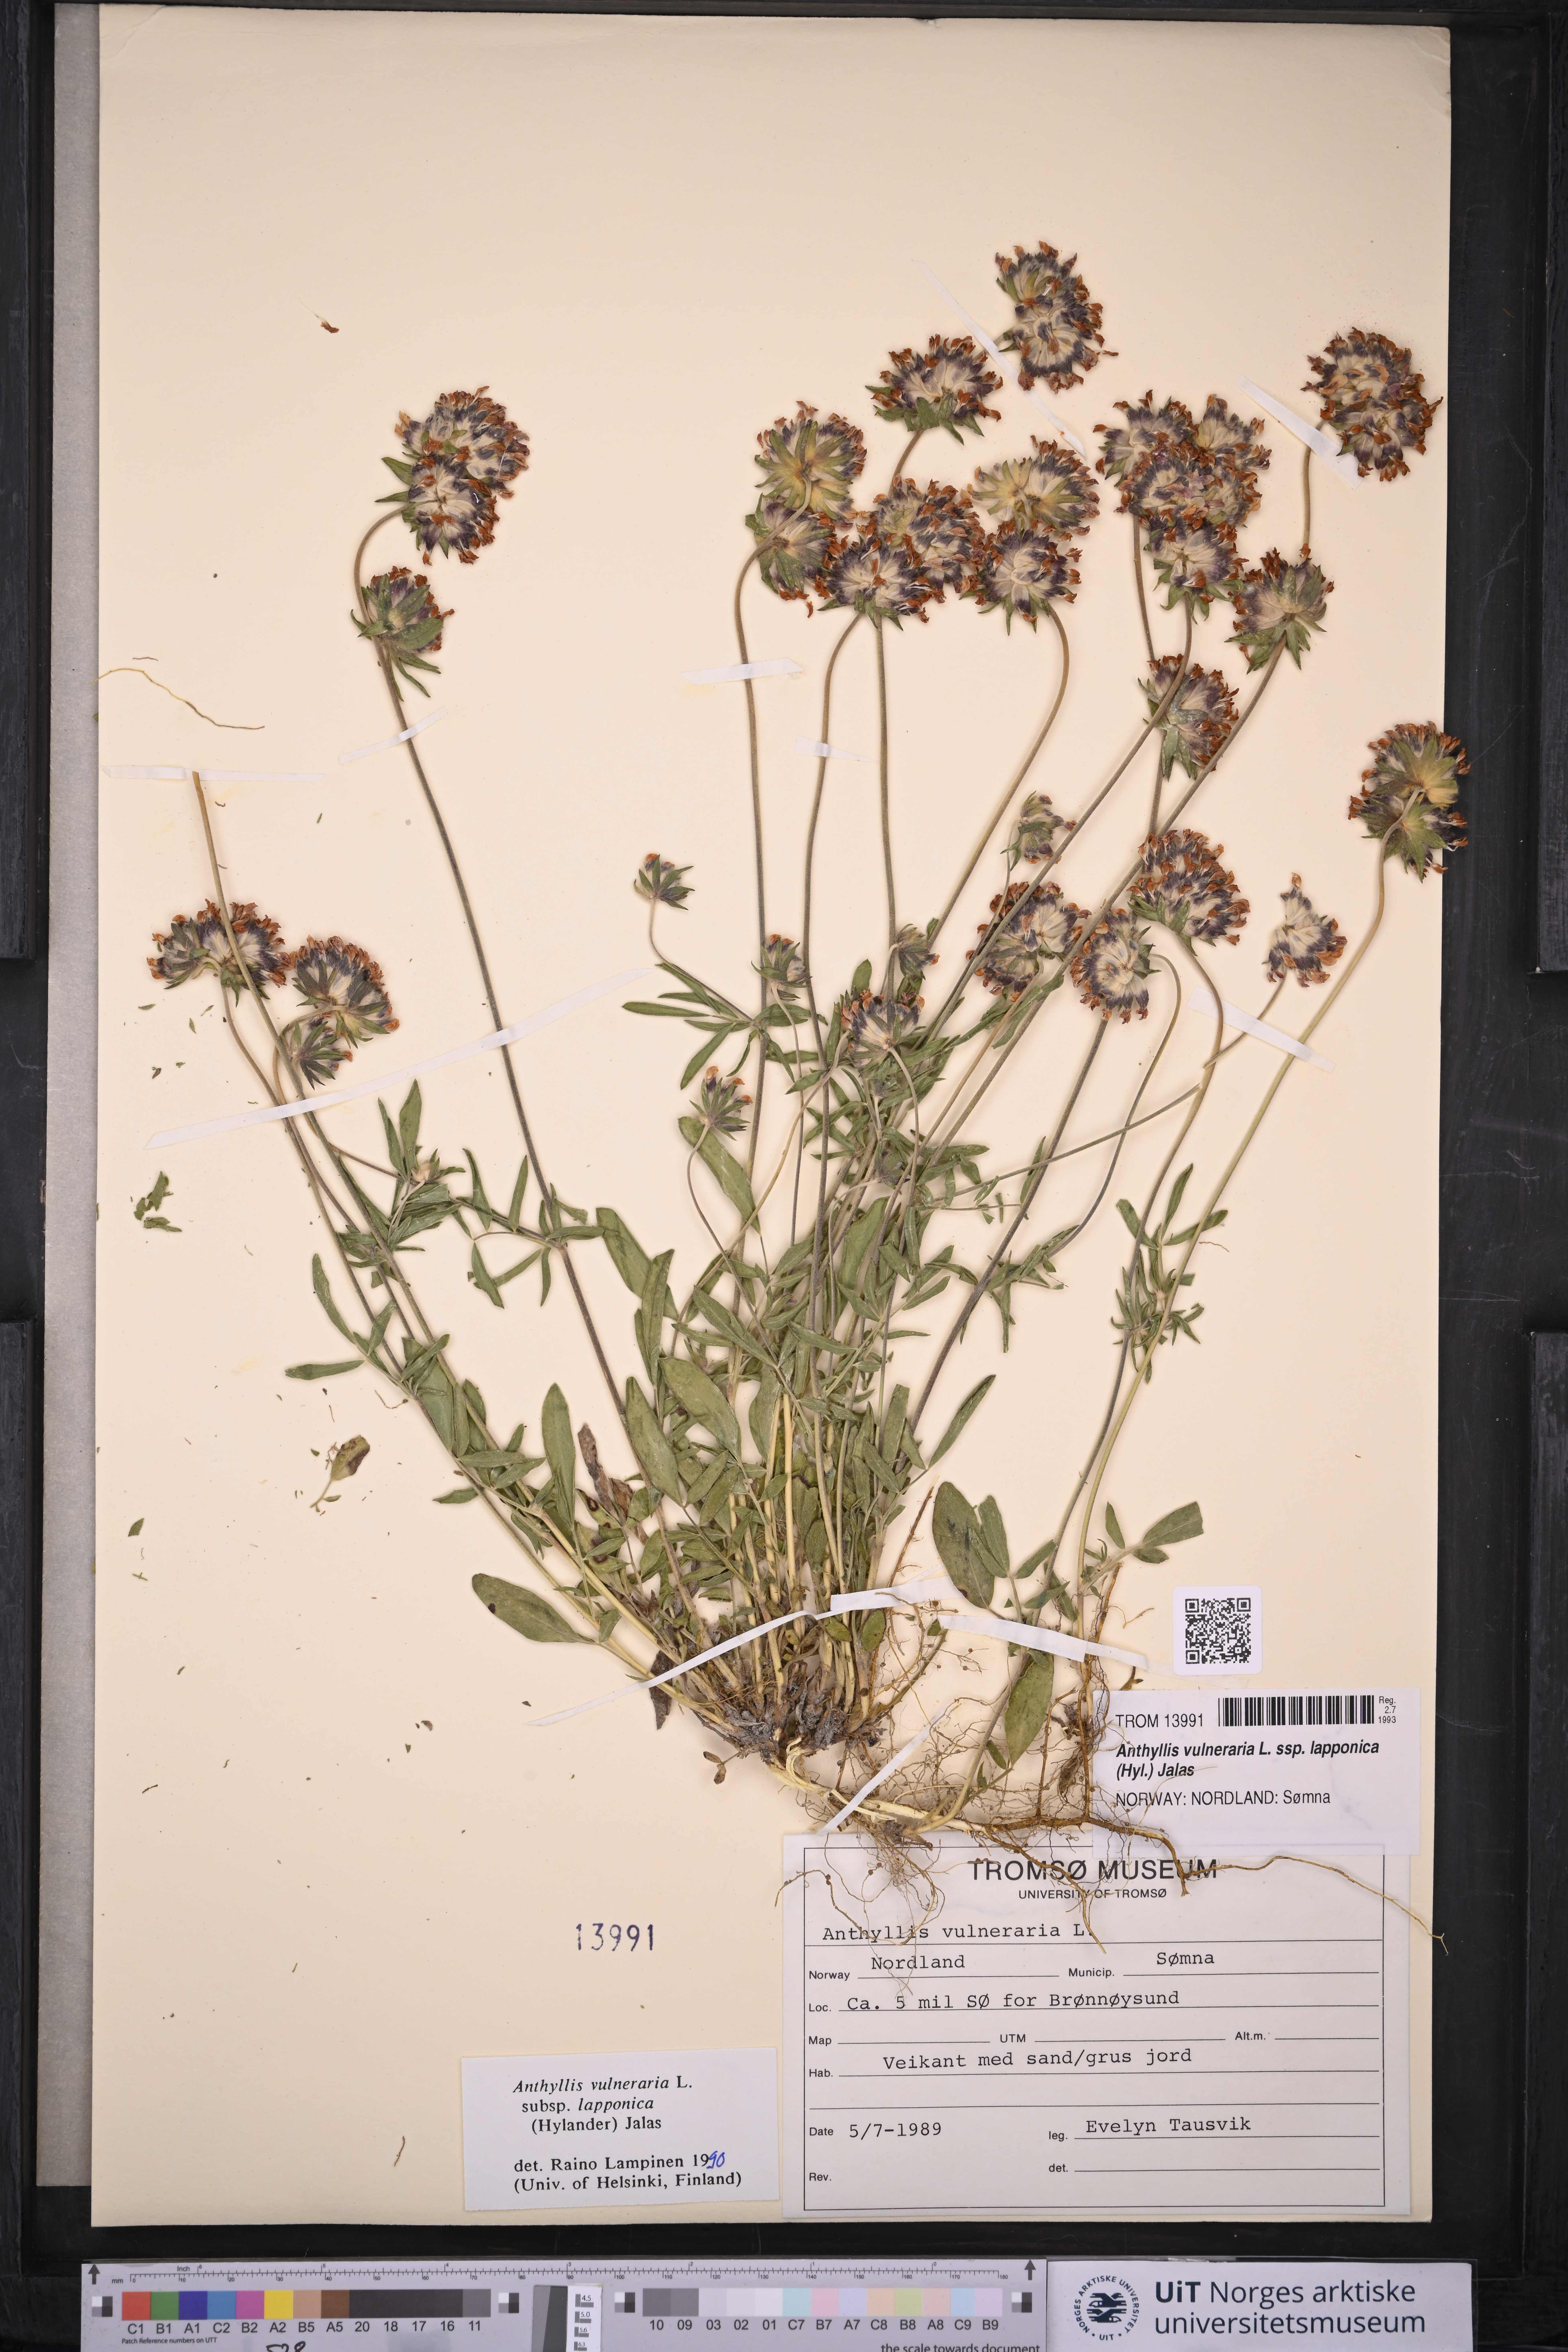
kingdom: Plantae
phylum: Tracheophyta
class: Magnoliopsida
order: Fabales
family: Fabaceae
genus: Anthyllis
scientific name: Anthyllis vulneraria
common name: Kidney vetch
